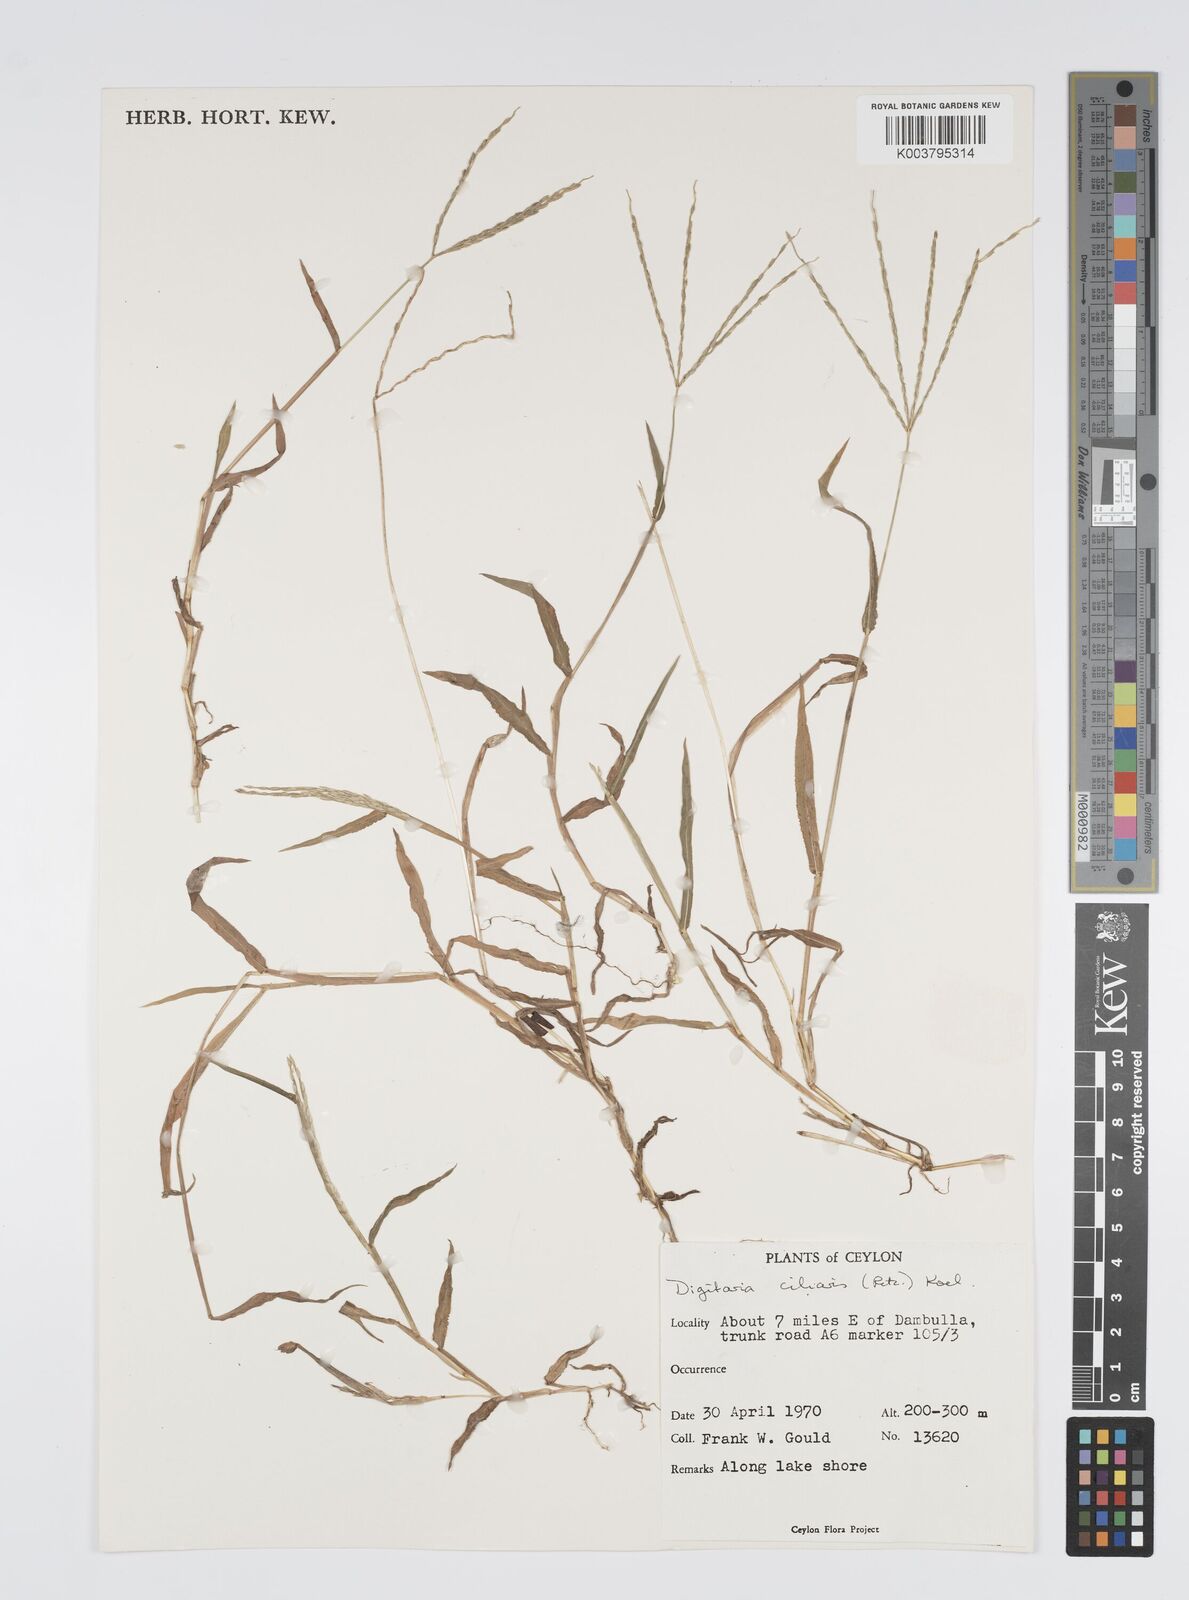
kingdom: Plantae
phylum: Tracheophyta
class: Liliopsida
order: Poales
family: Poaceae
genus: Digitaria
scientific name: Digitaria ciliaris
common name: Tropical finger-grass
